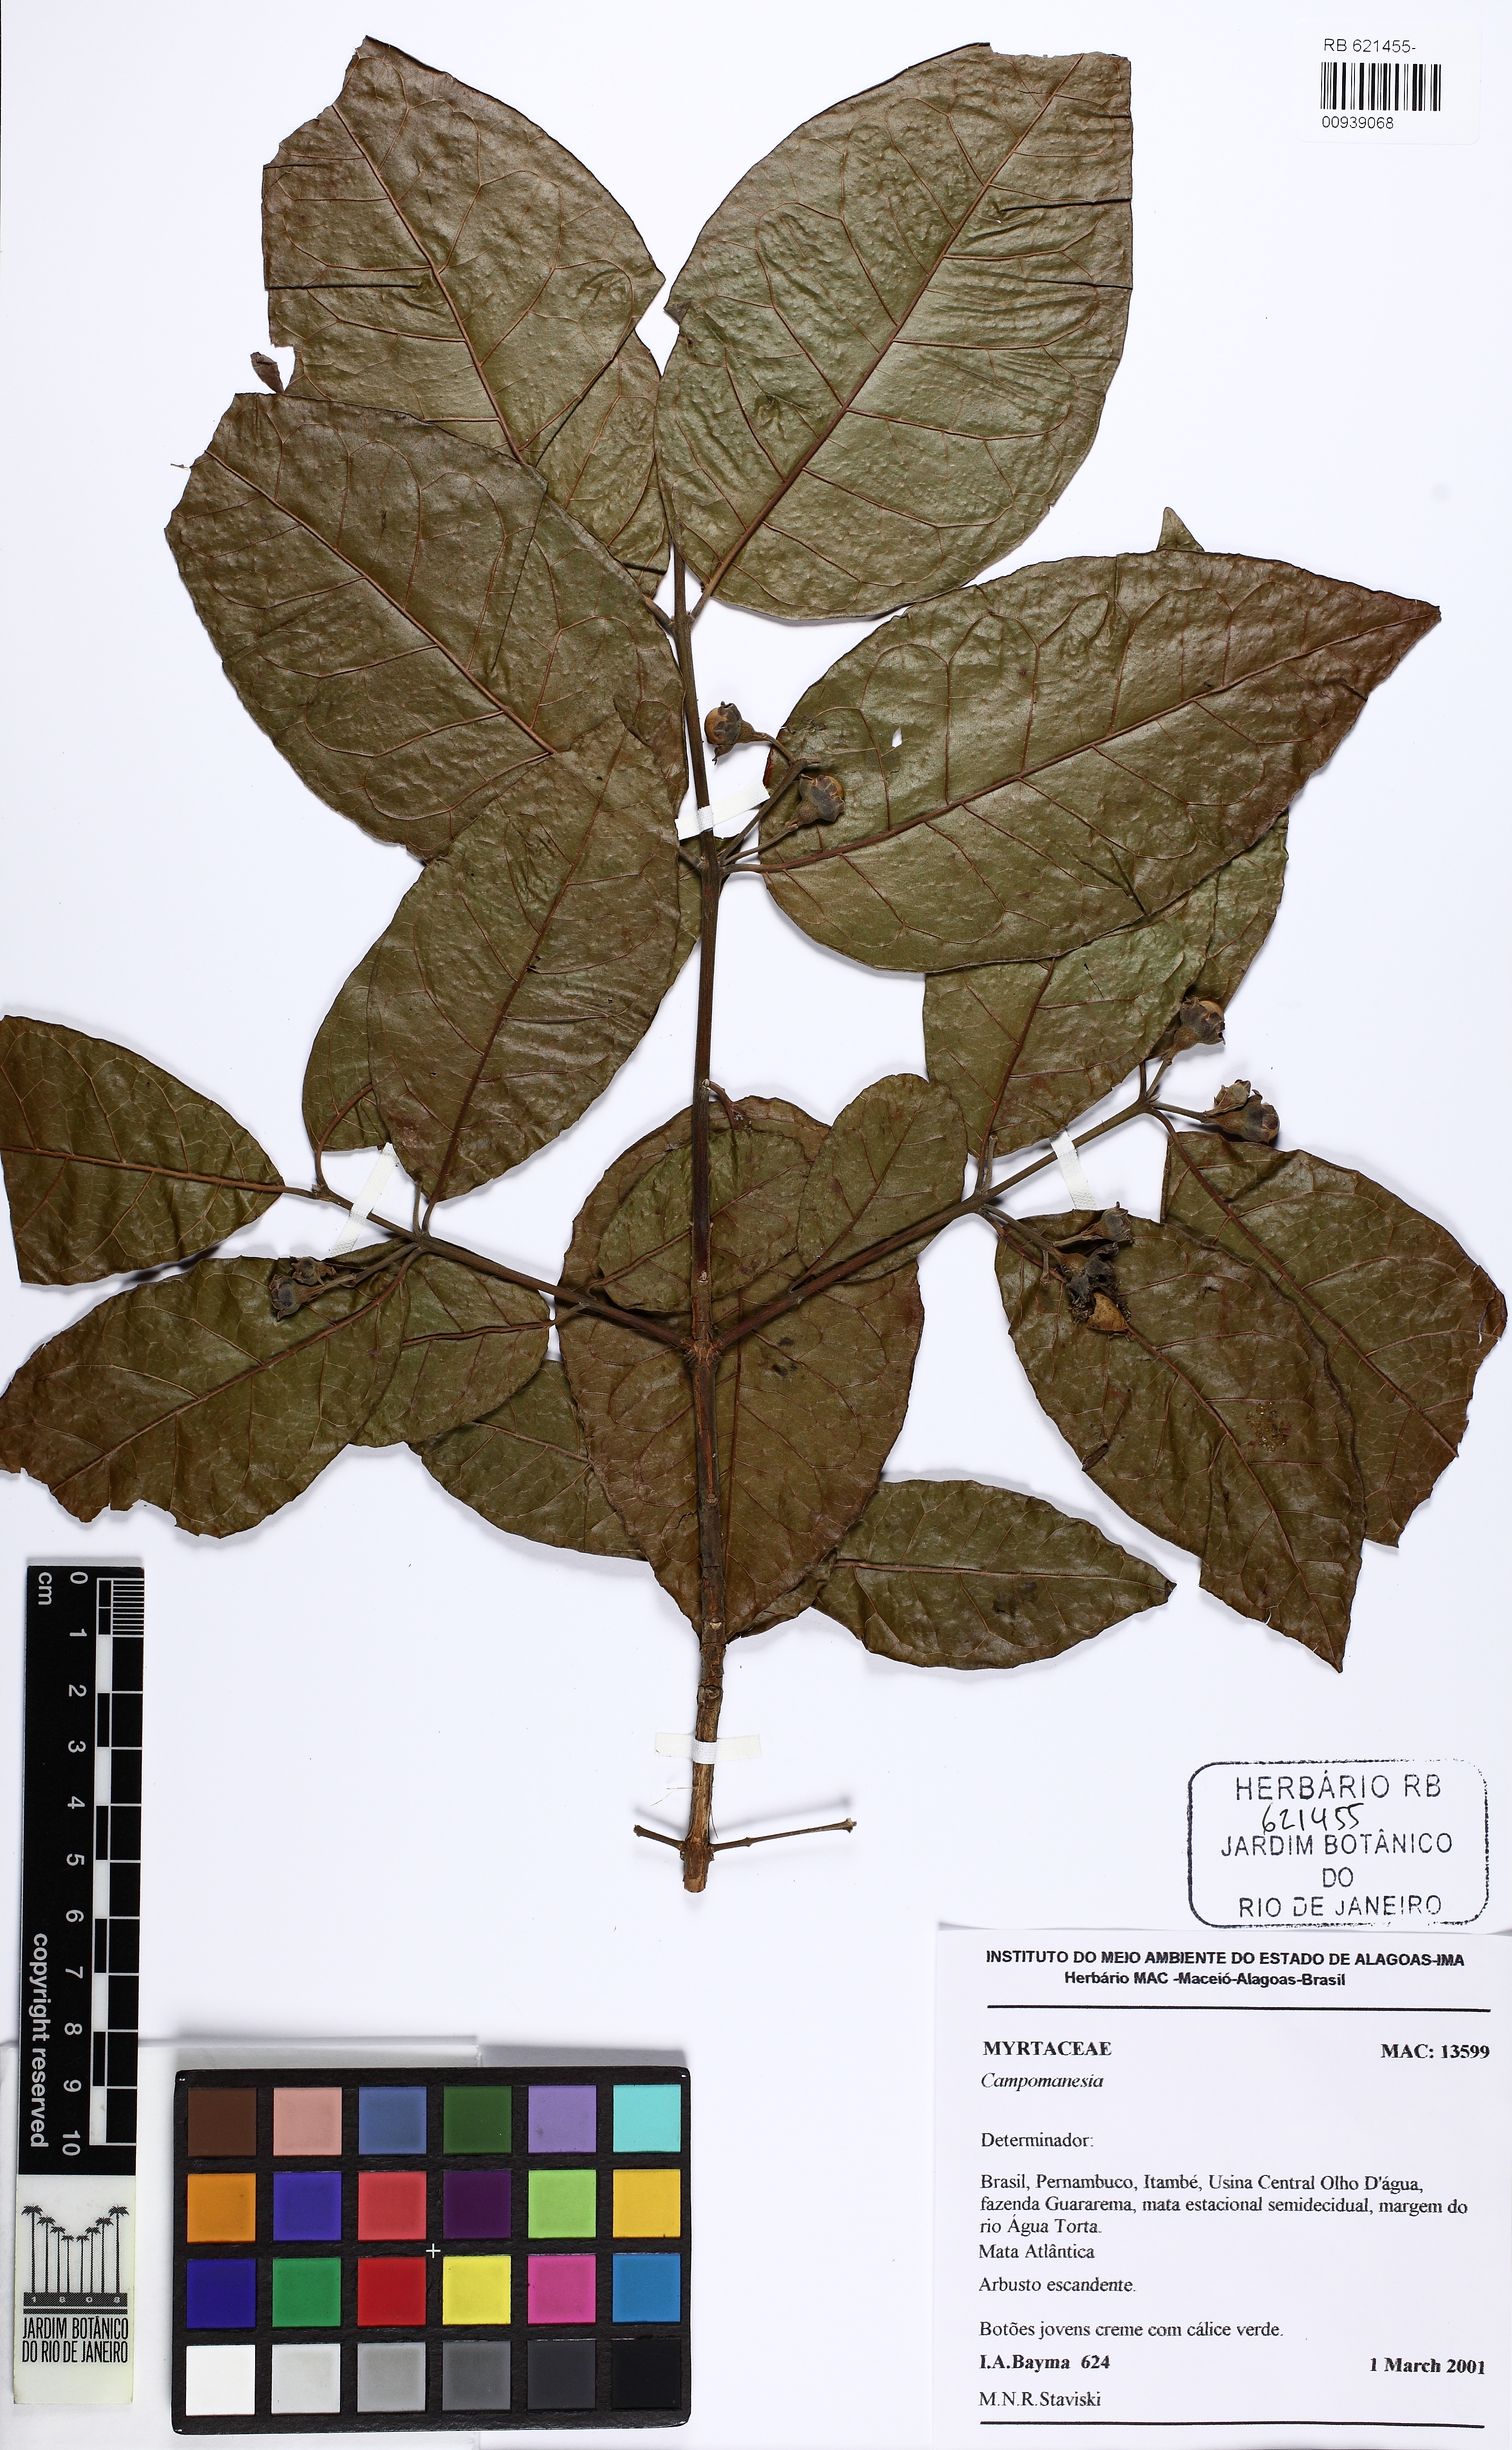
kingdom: Plantae
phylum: Tracheophyta
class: Magnoliopsida
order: Myrtales
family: Myrtaceae
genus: Campomanesia
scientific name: Campomanesia ilhoensis
